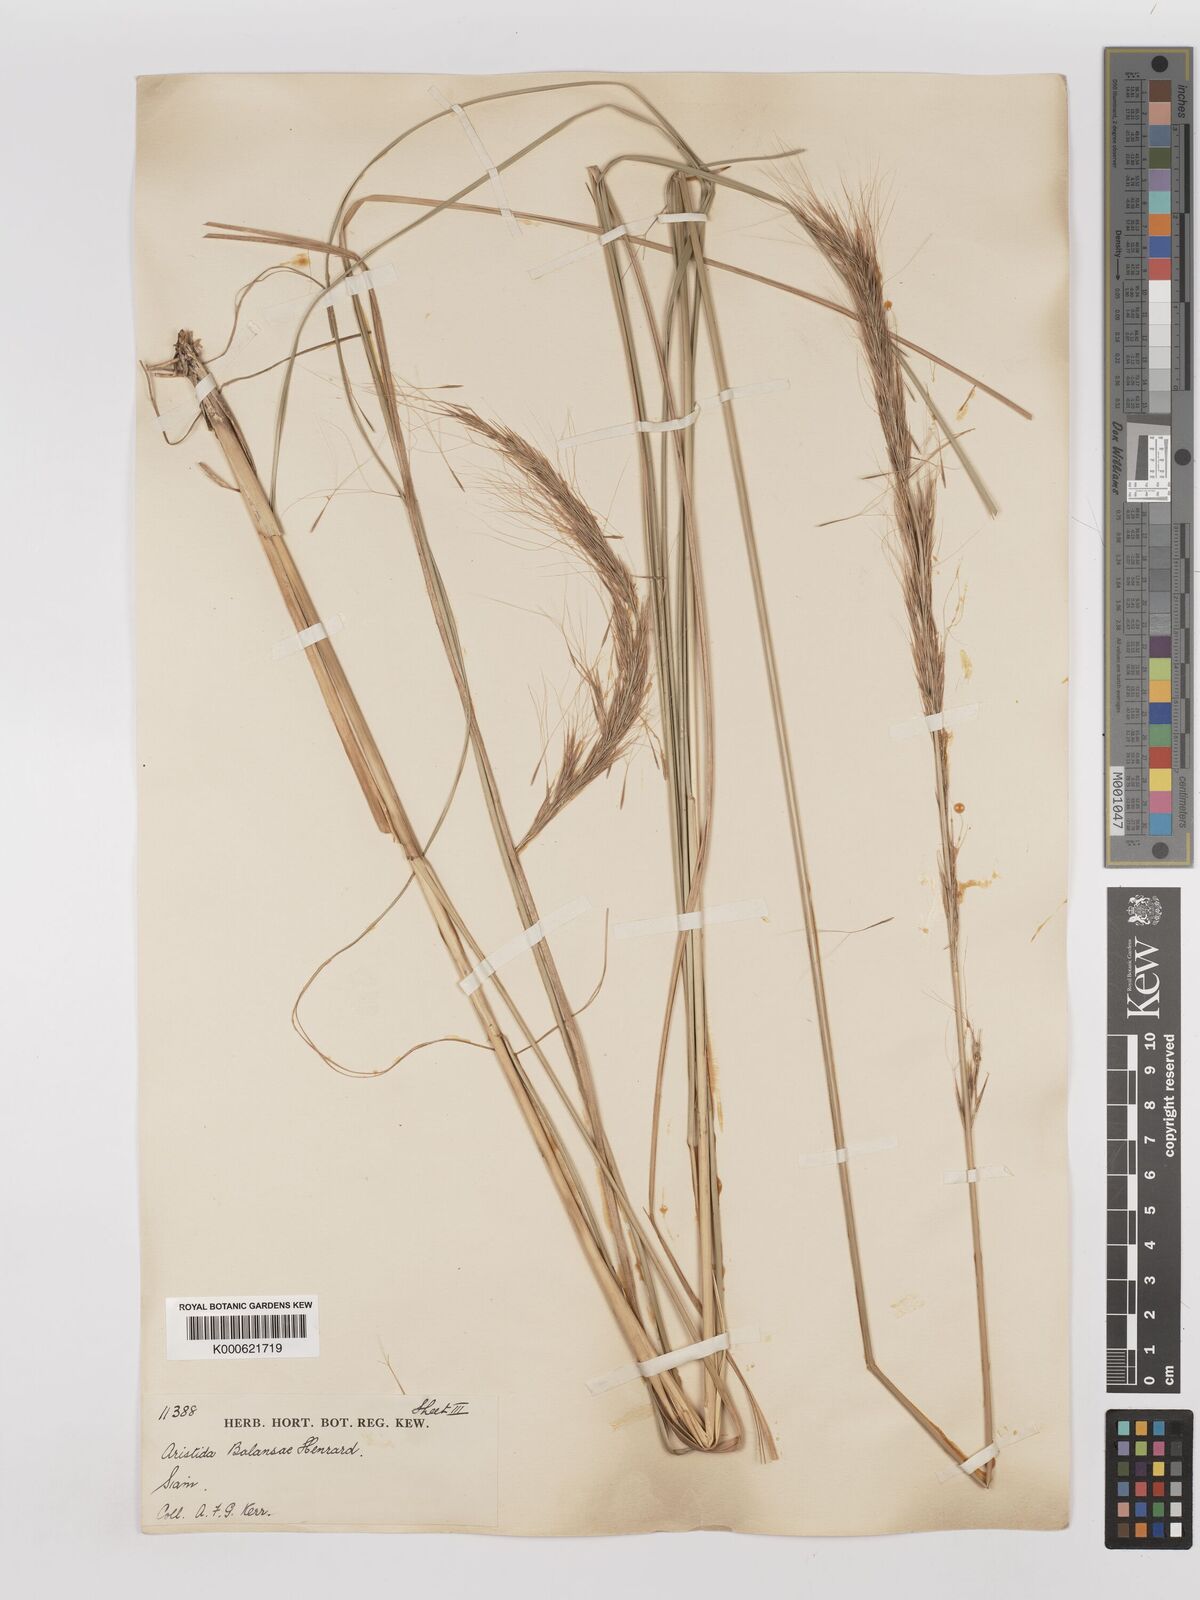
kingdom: Plantae
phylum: Tracheophyta
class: Liliopsida
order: Poales
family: Poaceae
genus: Aristida
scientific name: Aristida balansae
